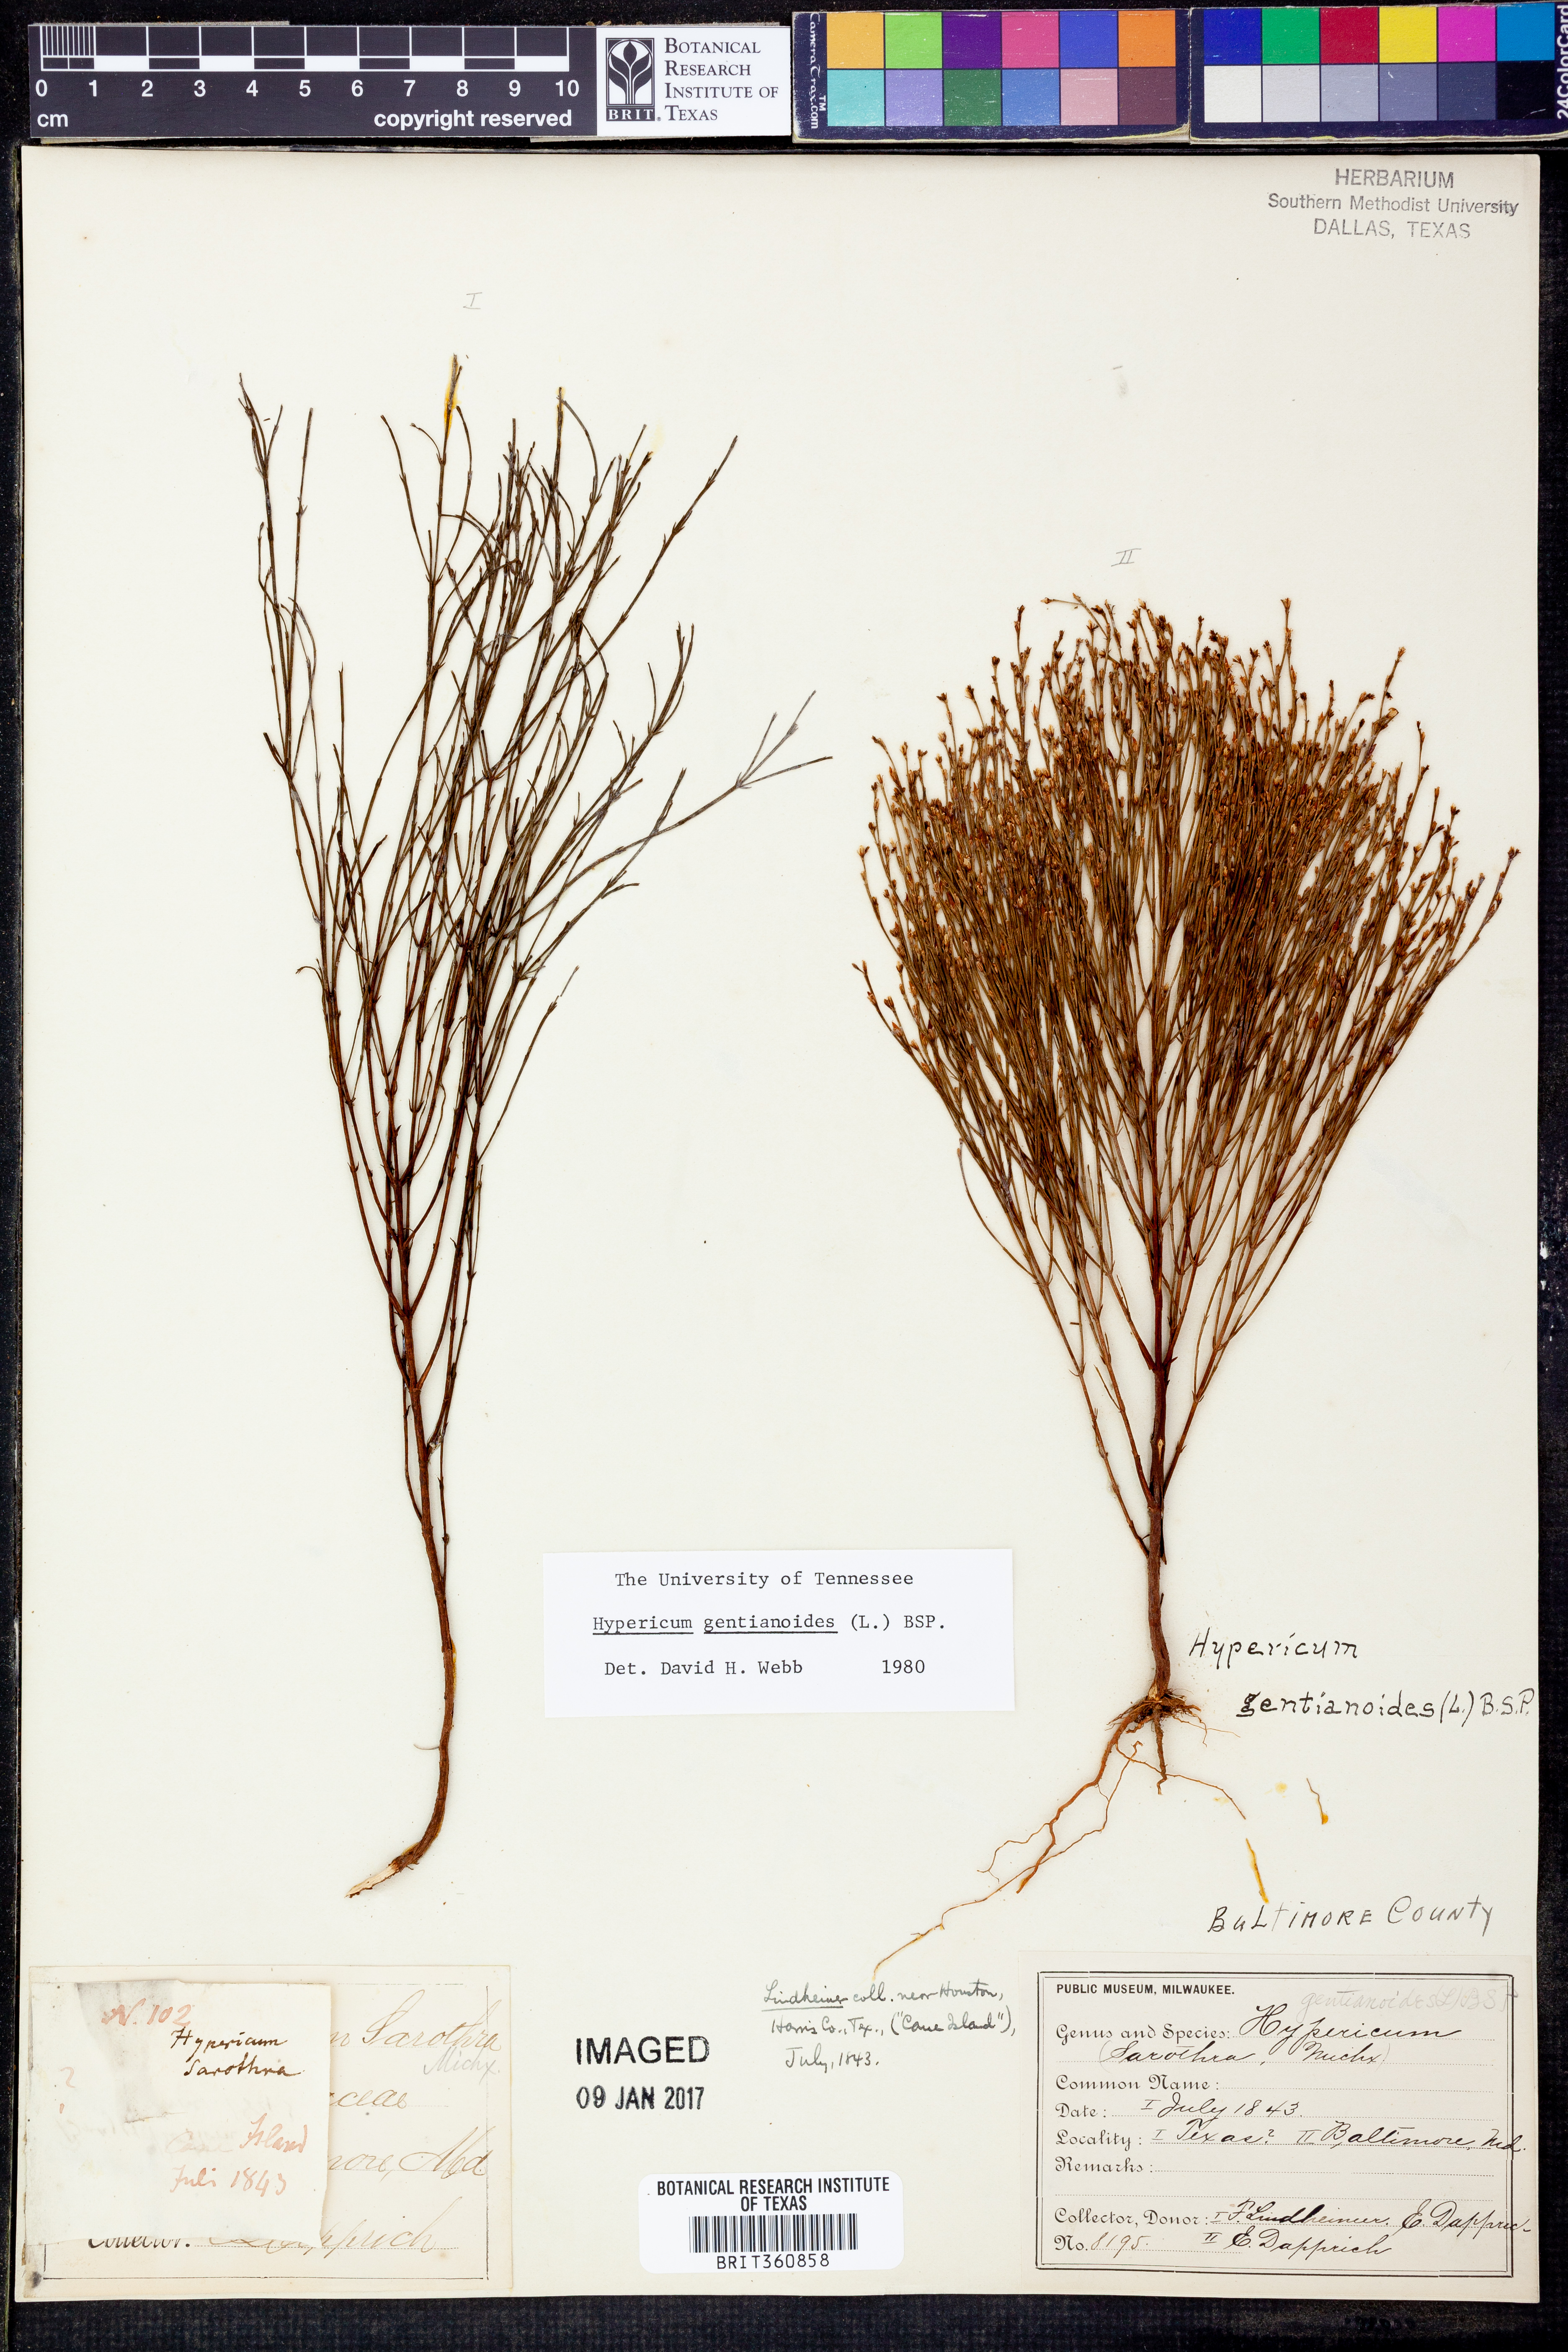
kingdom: Plantae
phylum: Tracheophyta
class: Magnoliopsida
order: Malpighiales
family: Hypericaceae
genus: Hypericum
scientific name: Hypericum gentianoides
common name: Gentian-leaved st. john's-wort
